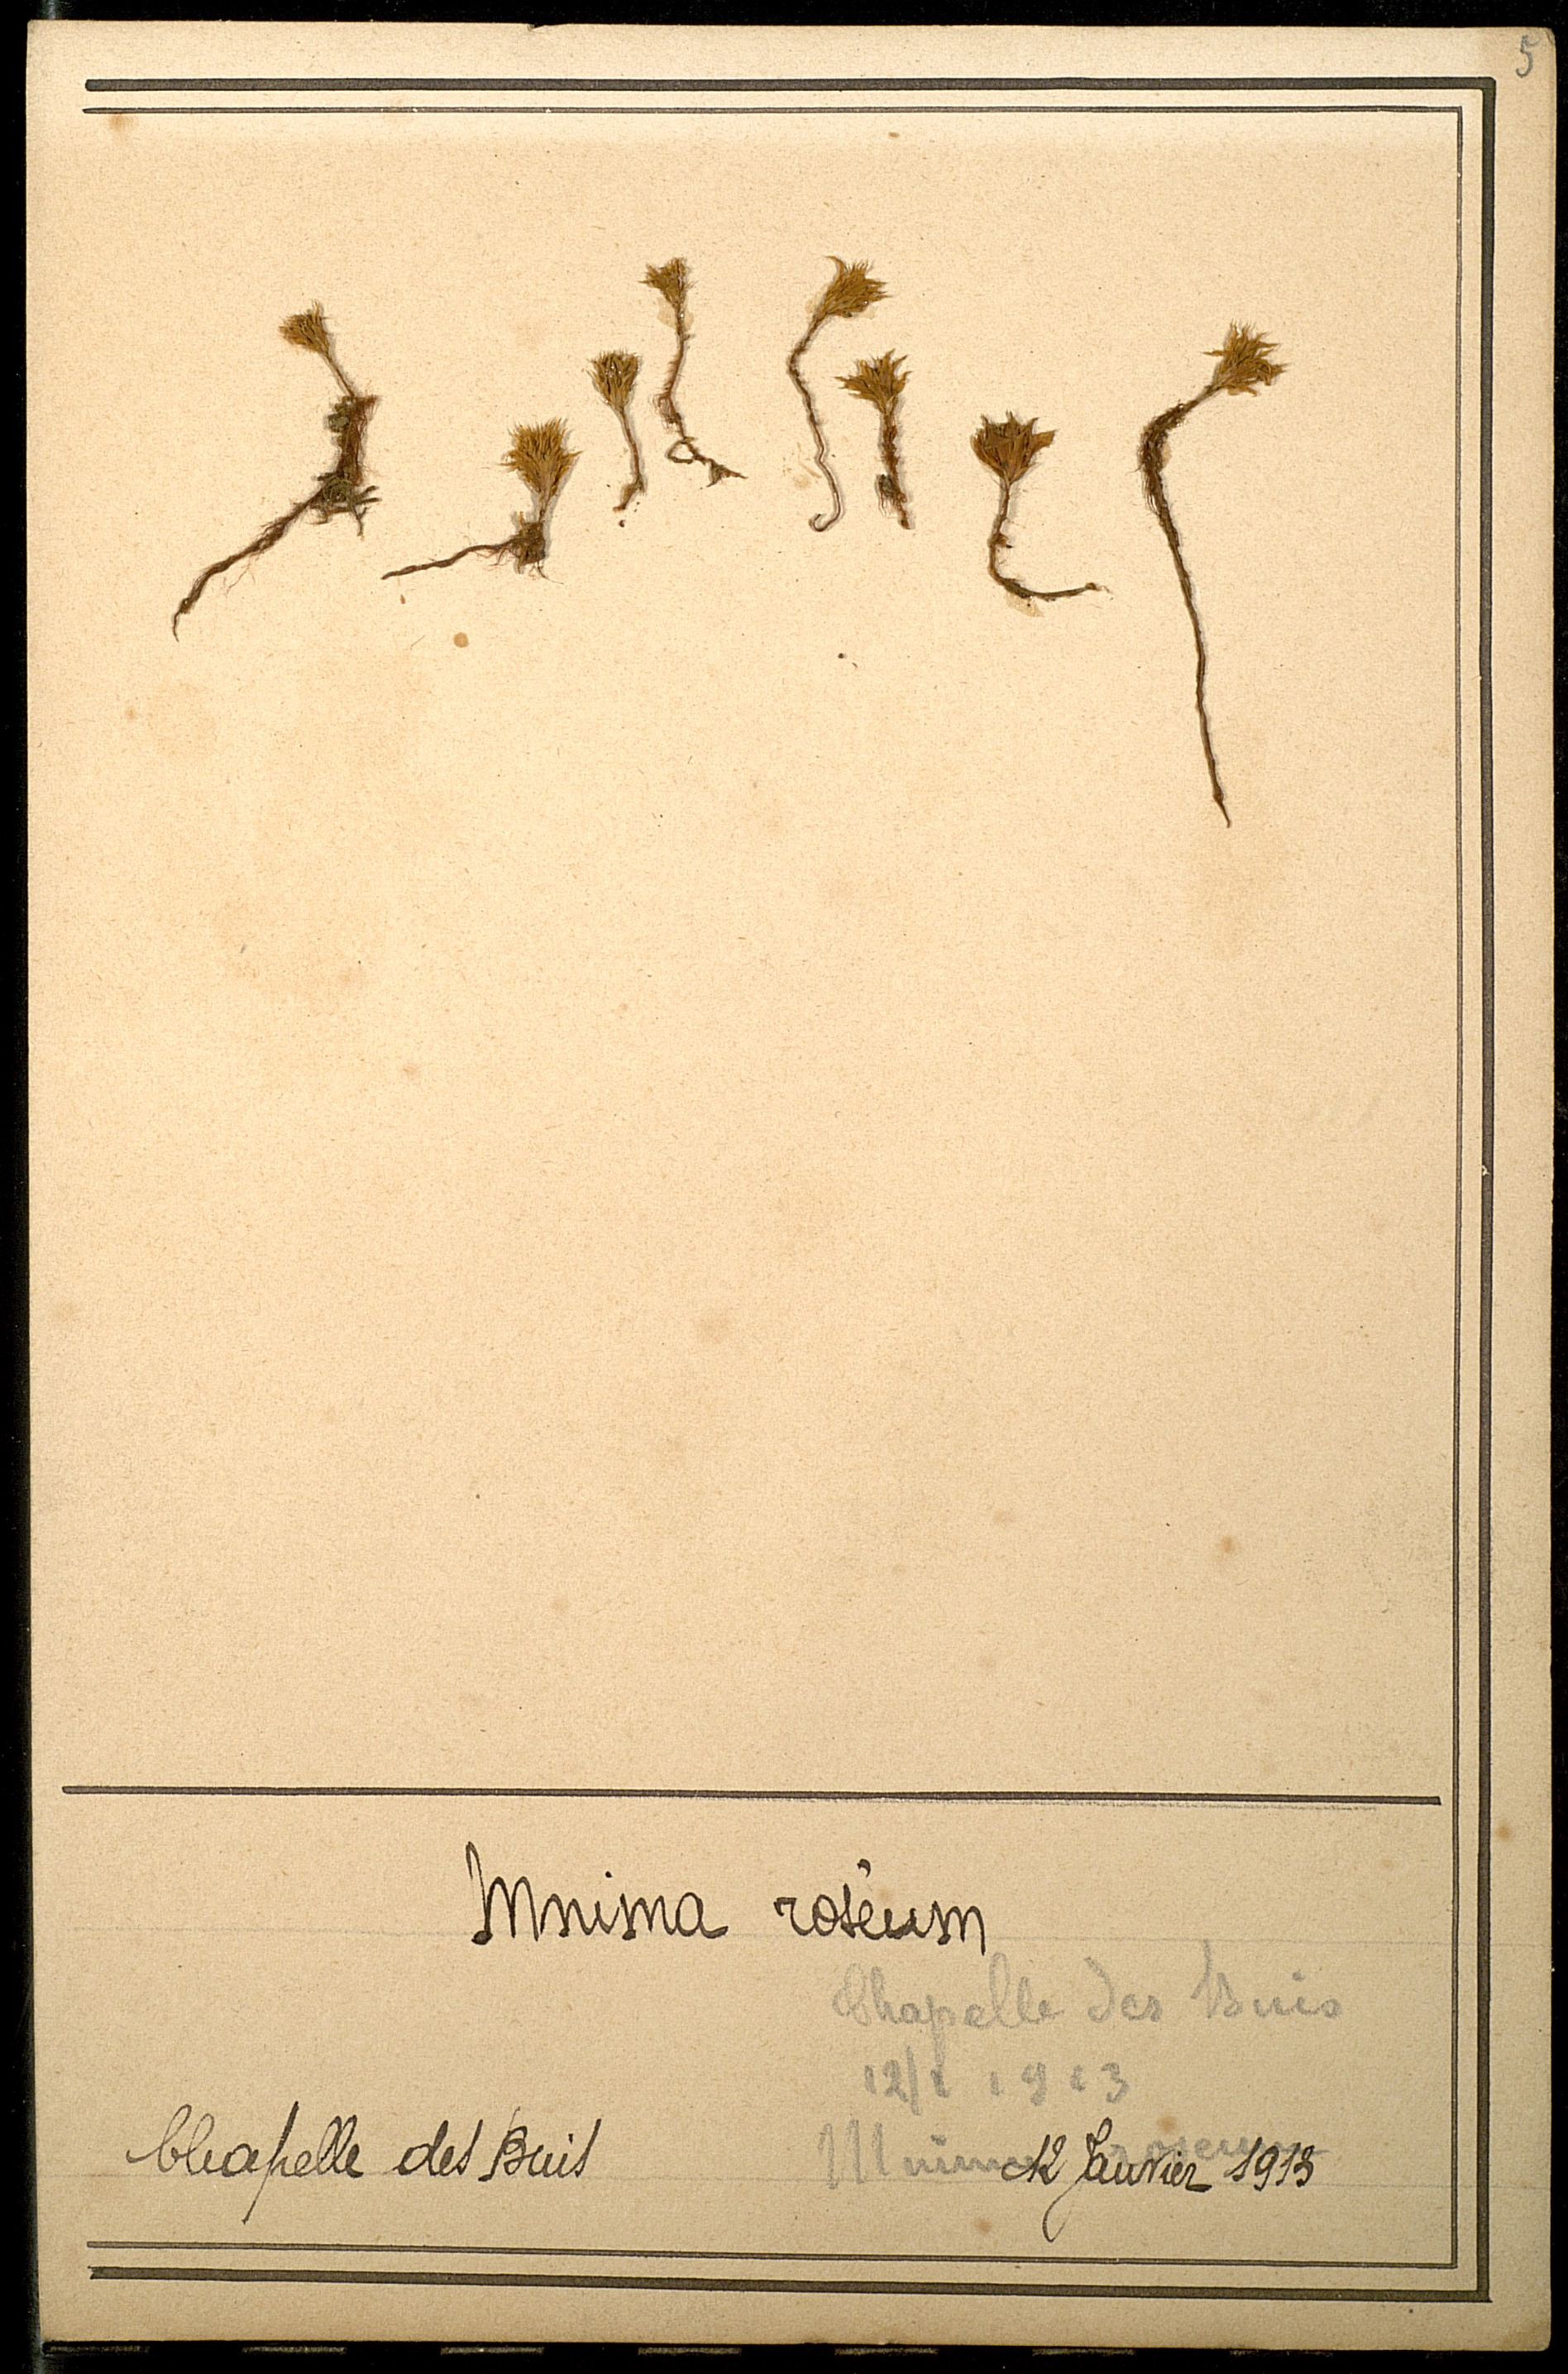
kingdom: Plantae
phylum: Bryophyta
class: Bryopsida
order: Bryales
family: Bryaceae
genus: Rhodobryum
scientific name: Rhodobryum roseum
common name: Rose-moss
